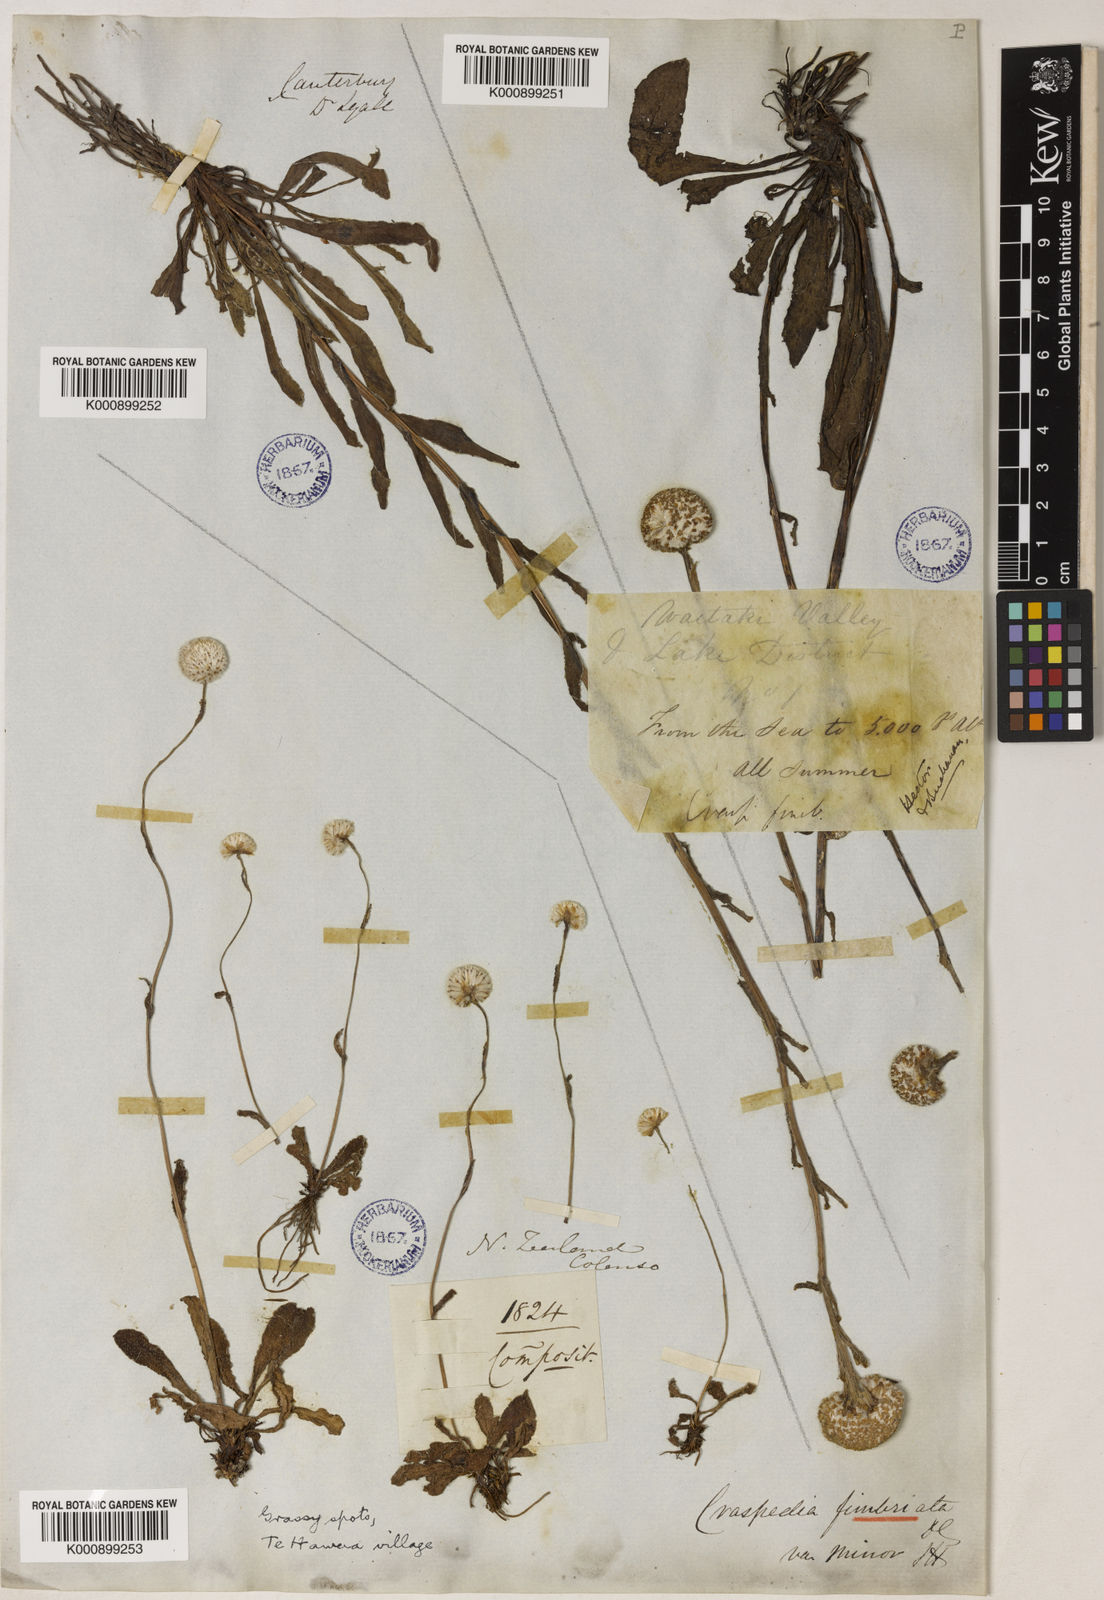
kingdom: Plantae
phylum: Tracheophyta
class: Magnoliopsida
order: Asterales
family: Asteraceae
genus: Craspedia
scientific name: Craspedia uniflora
